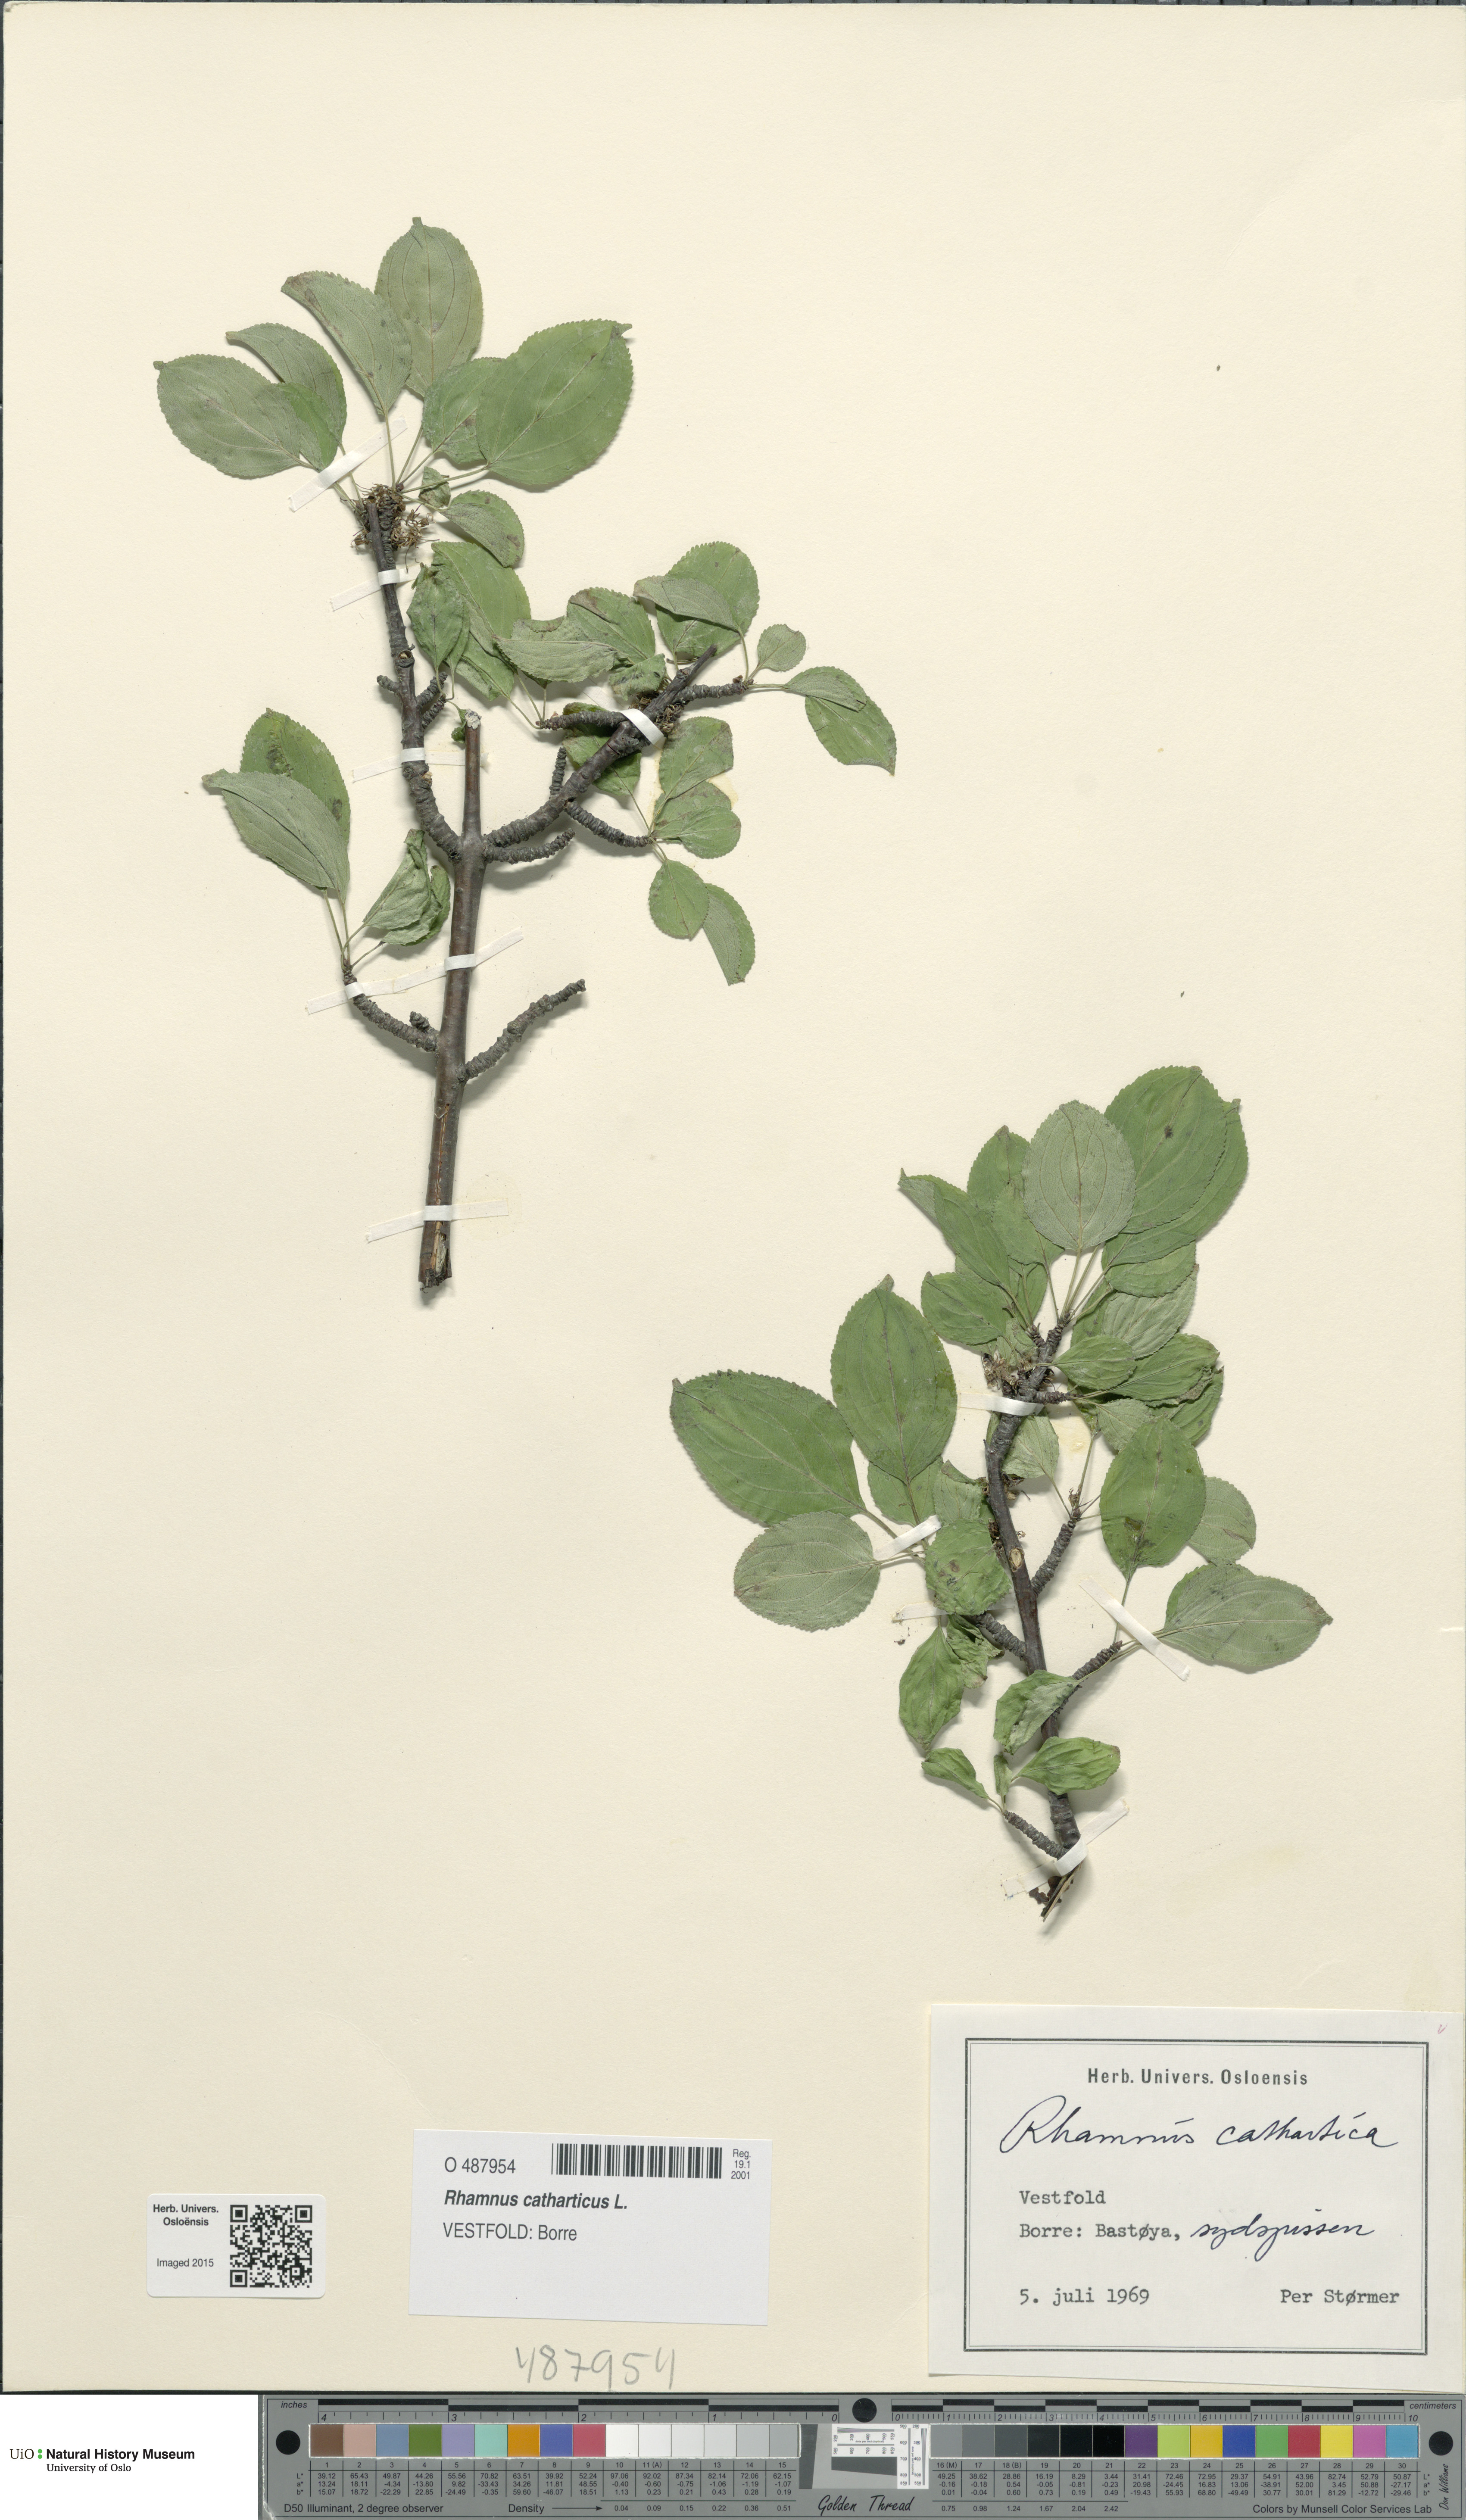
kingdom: Plantae
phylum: Tracheophyta
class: Magnoliopsida
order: Rosales
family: Rhamnaceae
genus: Rhamnus
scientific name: Rhamnus cathartica
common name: Common buckthorn
